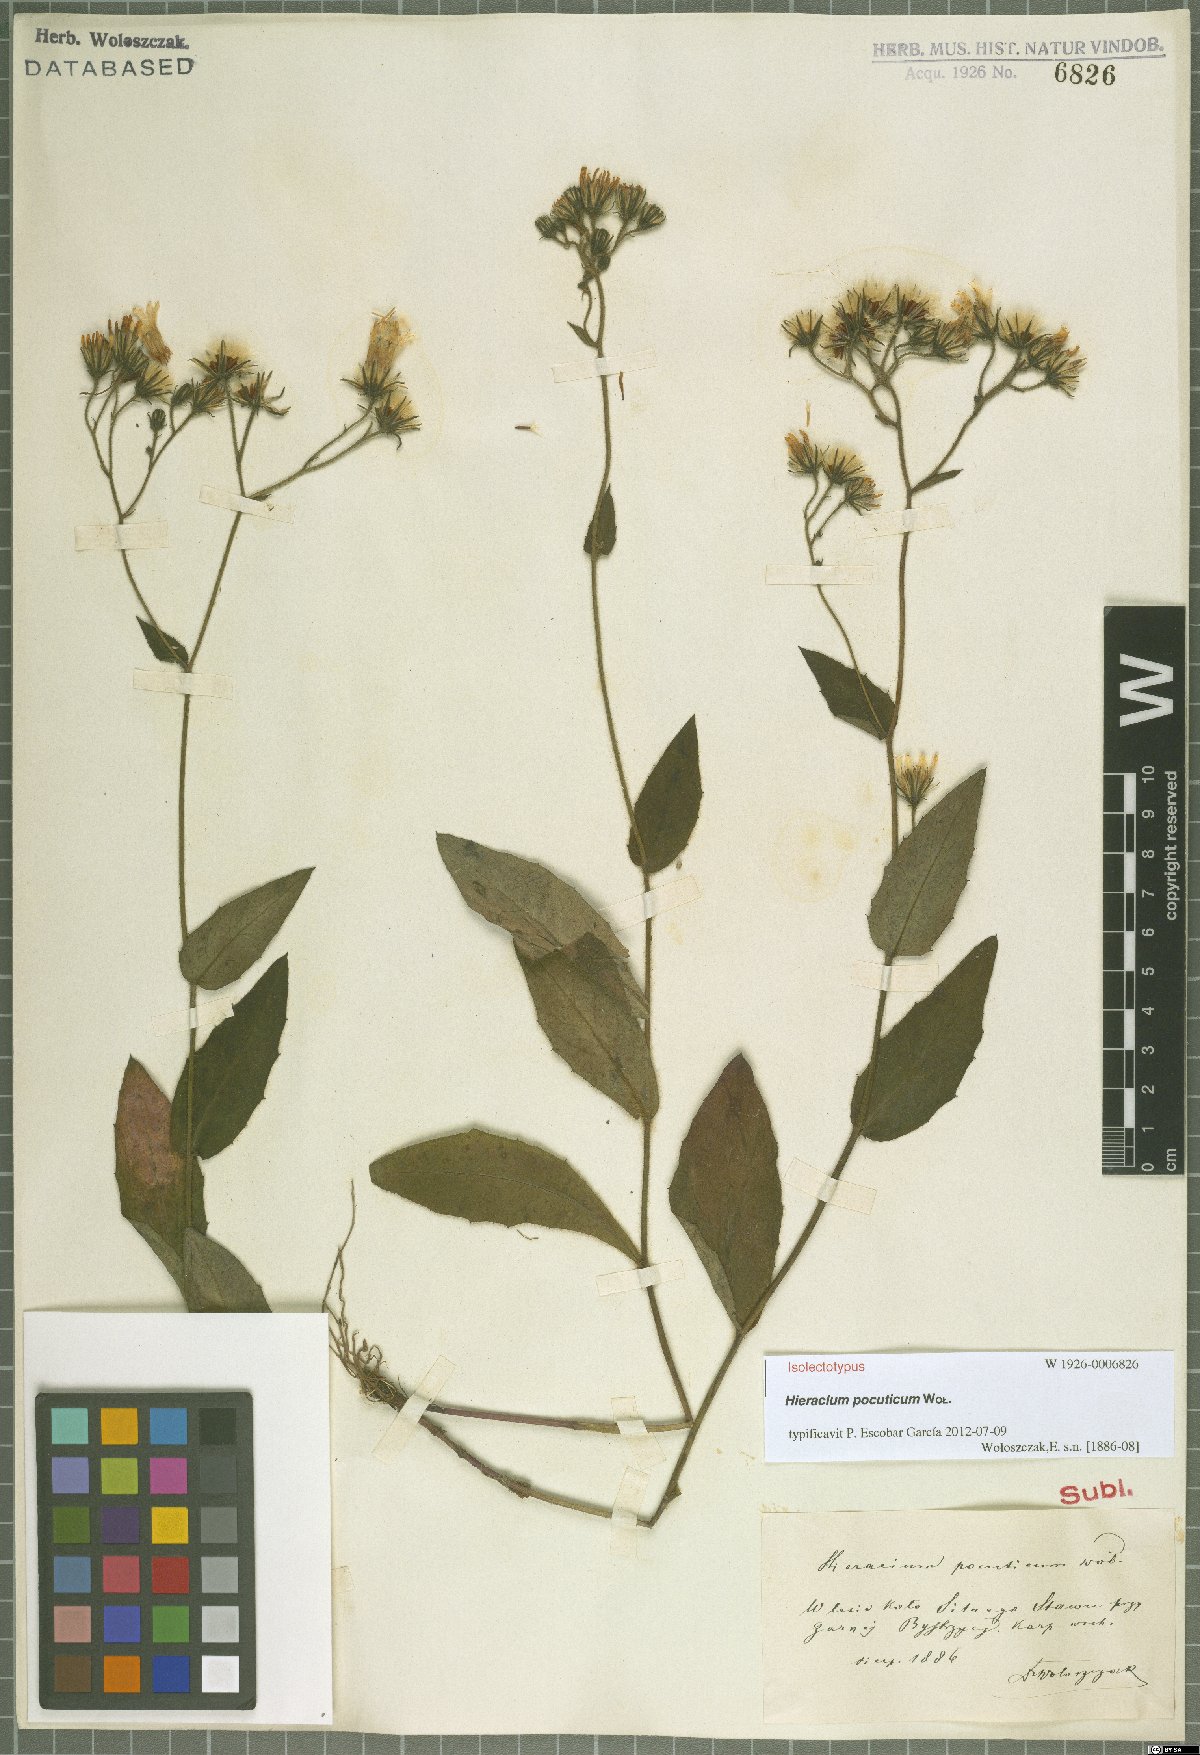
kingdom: Plantae
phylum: Tracheophyta
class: Magnoliopsida
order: Asterales
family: Asteraceae
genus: Hieracium
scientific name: Hieracium pocuticum
